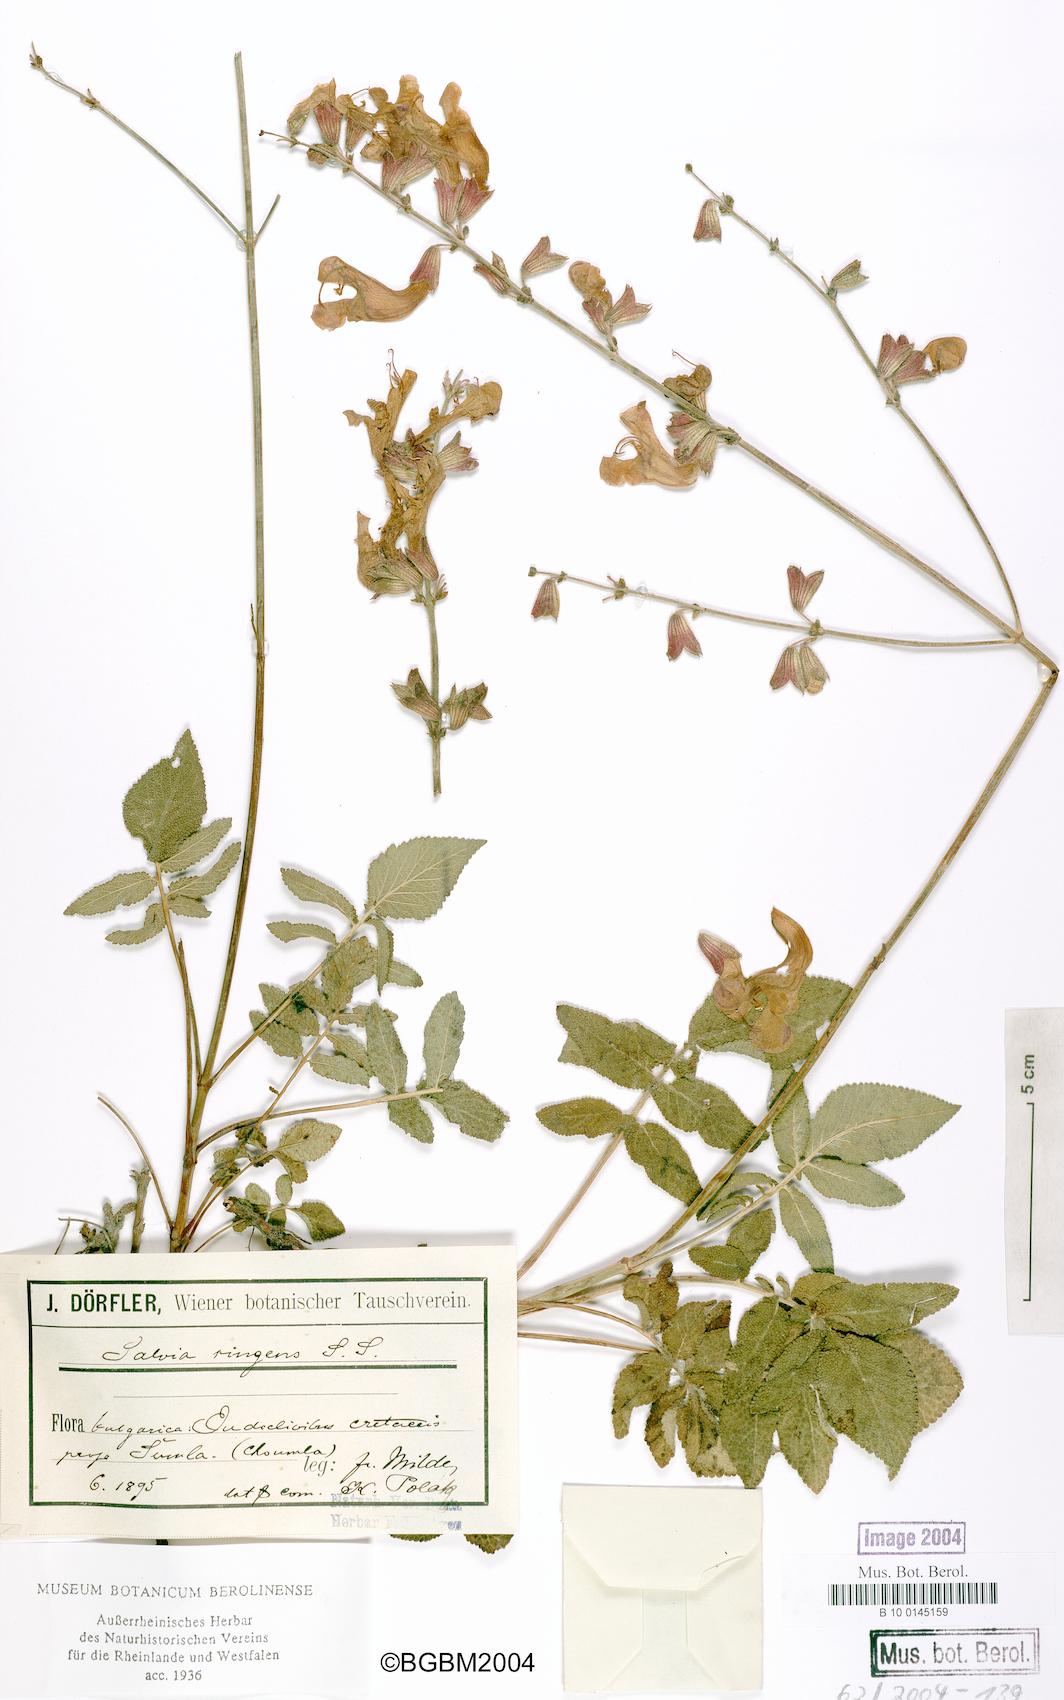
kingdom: Plantae
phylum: Tracheophyta
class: Magnoliopsida
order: Lamiales
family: Lamiaceae
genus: Salvia
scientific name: Salvia ringens
